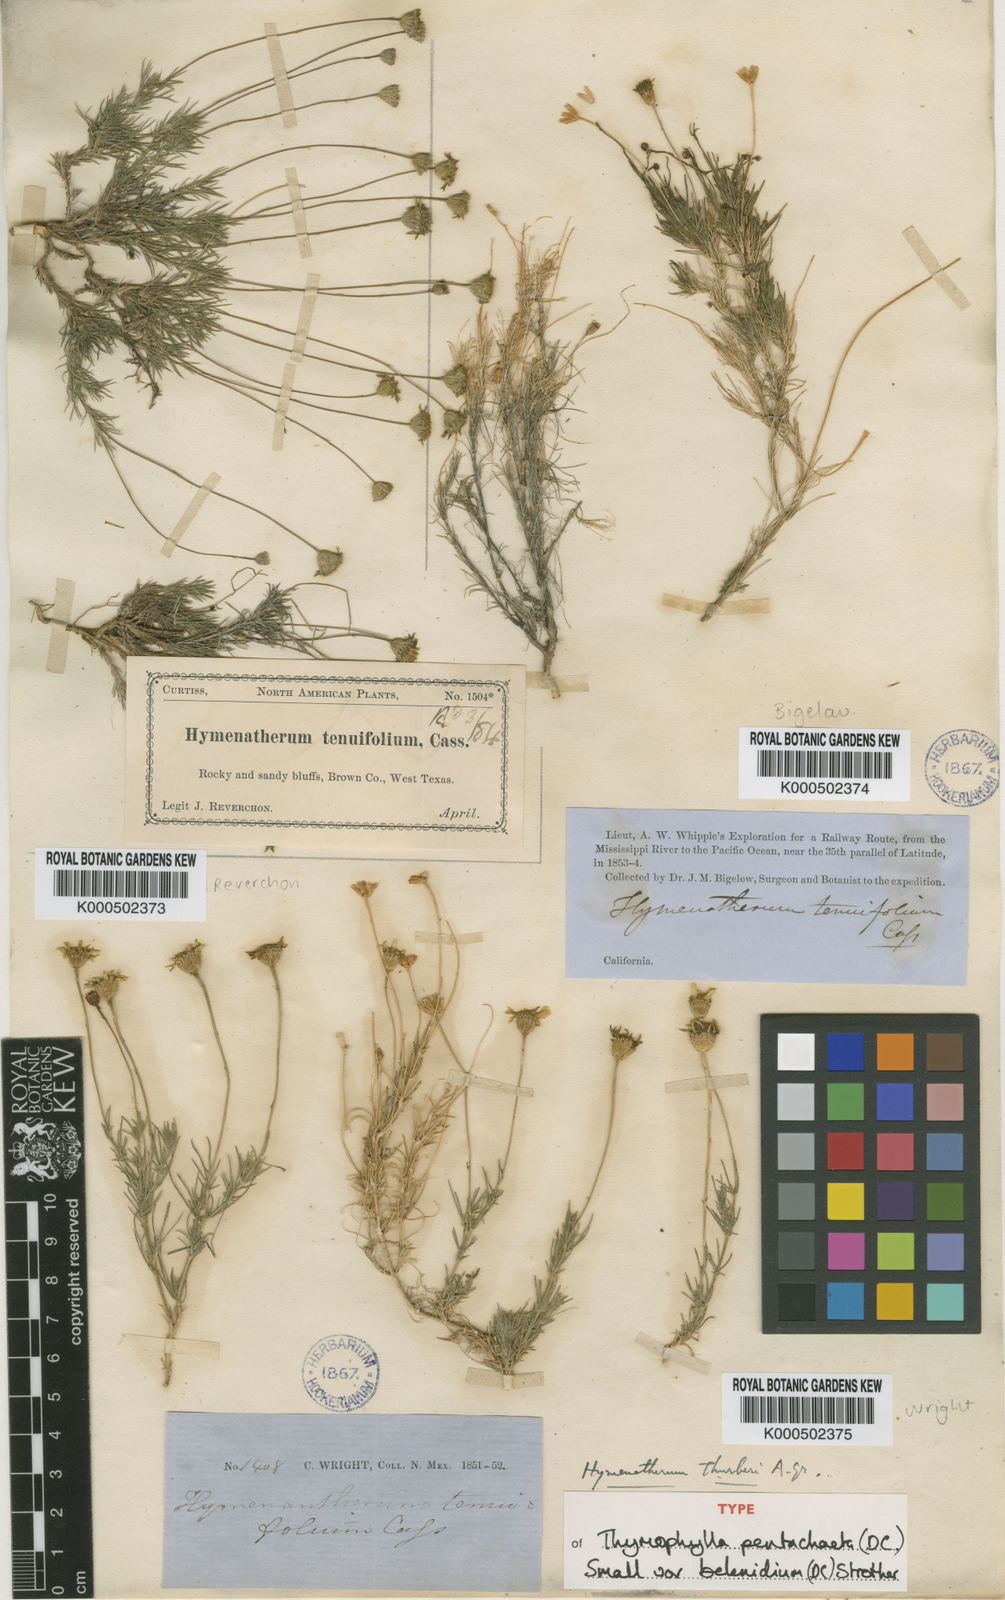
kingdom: Plantae
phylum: Tracheophyta
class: Magnoliopsida
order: Asterales
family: Asteraceae
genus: Thymophylla
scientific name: Thymophylla pentachaeta
